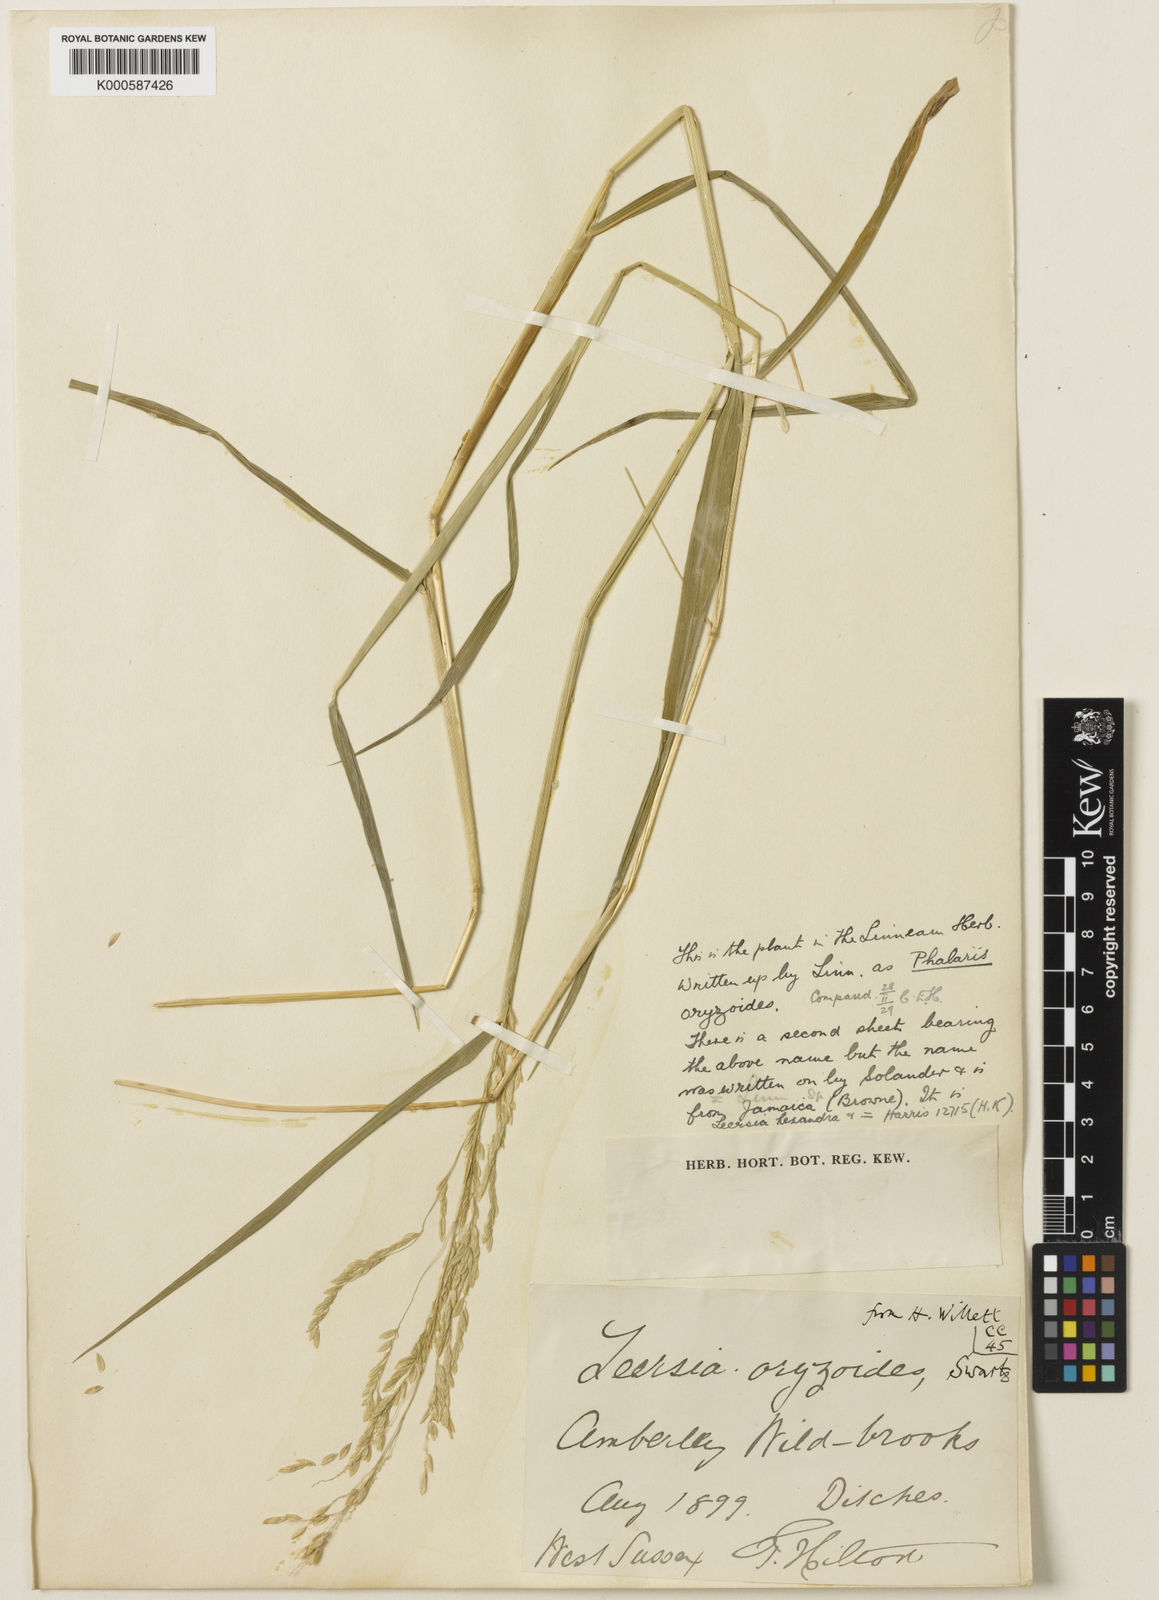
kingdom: Plantae
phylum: Tracheophyta
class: Liliopsida
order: Poales
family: Poaceae
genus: Leersia
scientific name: Leersia oryzoides
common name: Cut-grass
